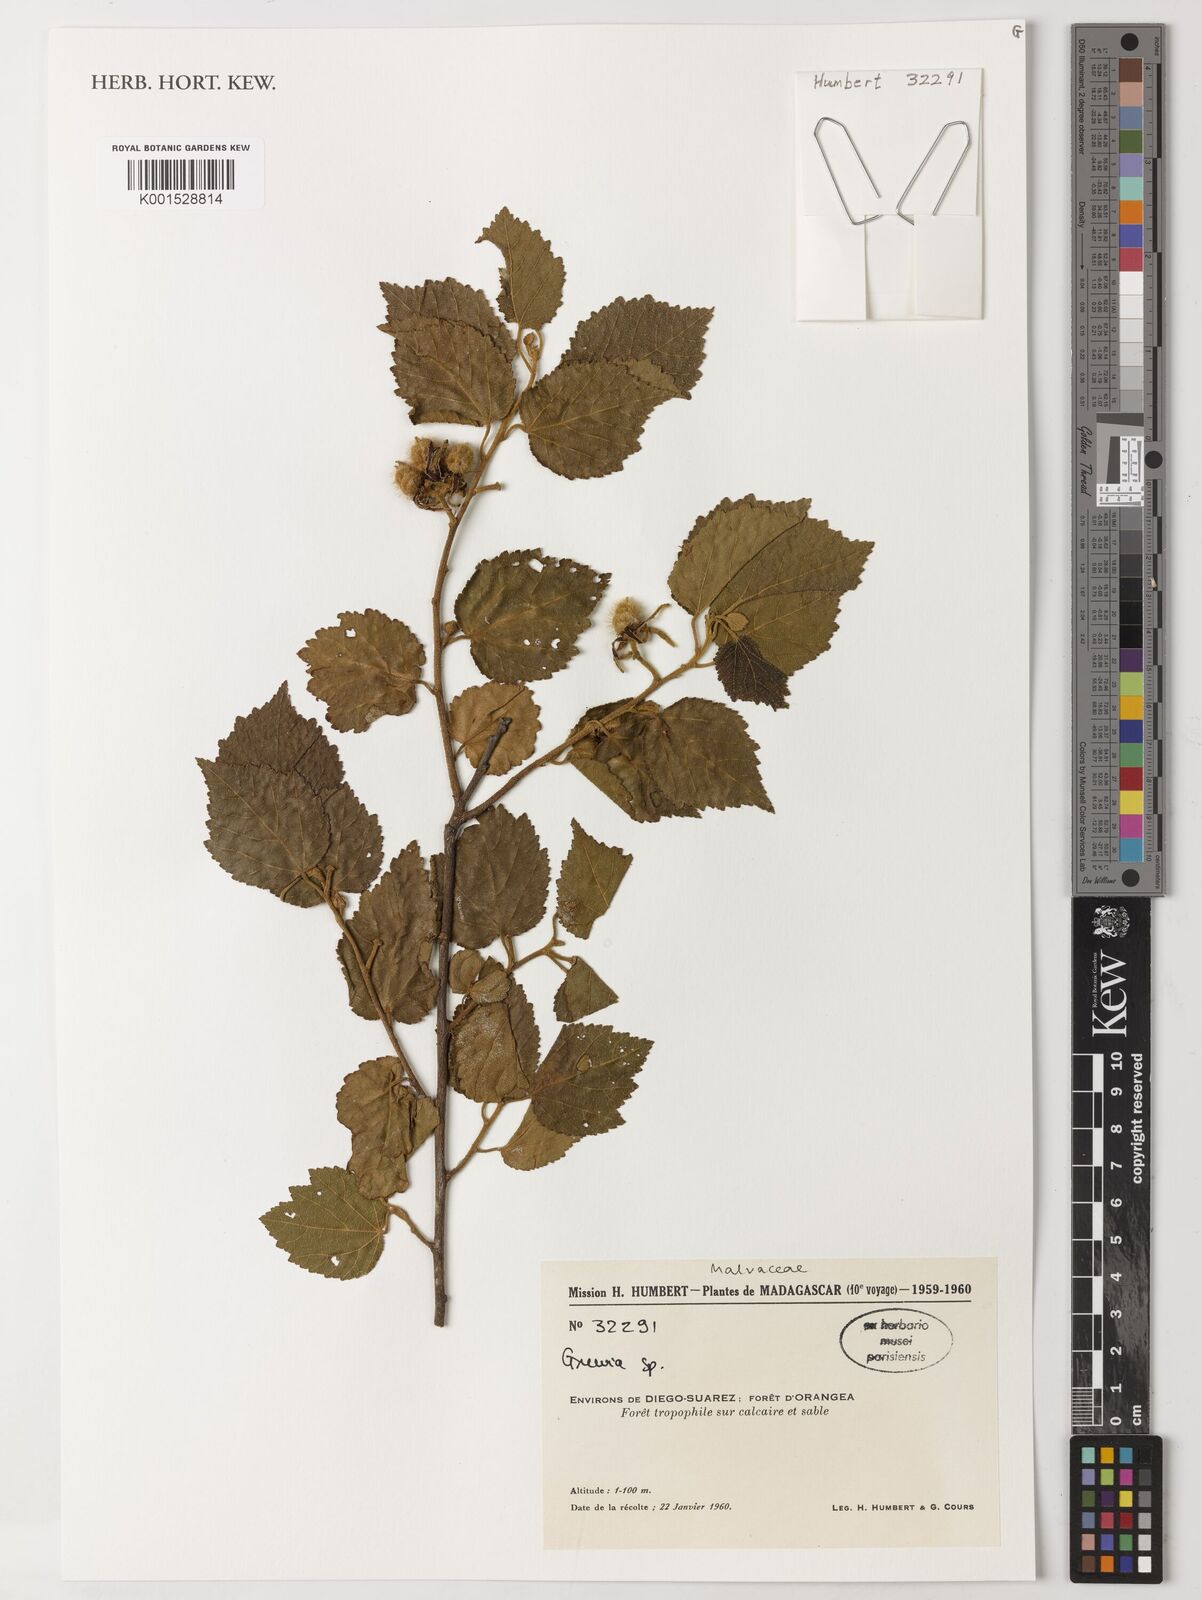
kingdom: Plantae
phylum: Tracheophyta
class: Magnoliopsida
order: Malvales
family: Malvaceae
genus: Grewia
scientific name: Grewia
